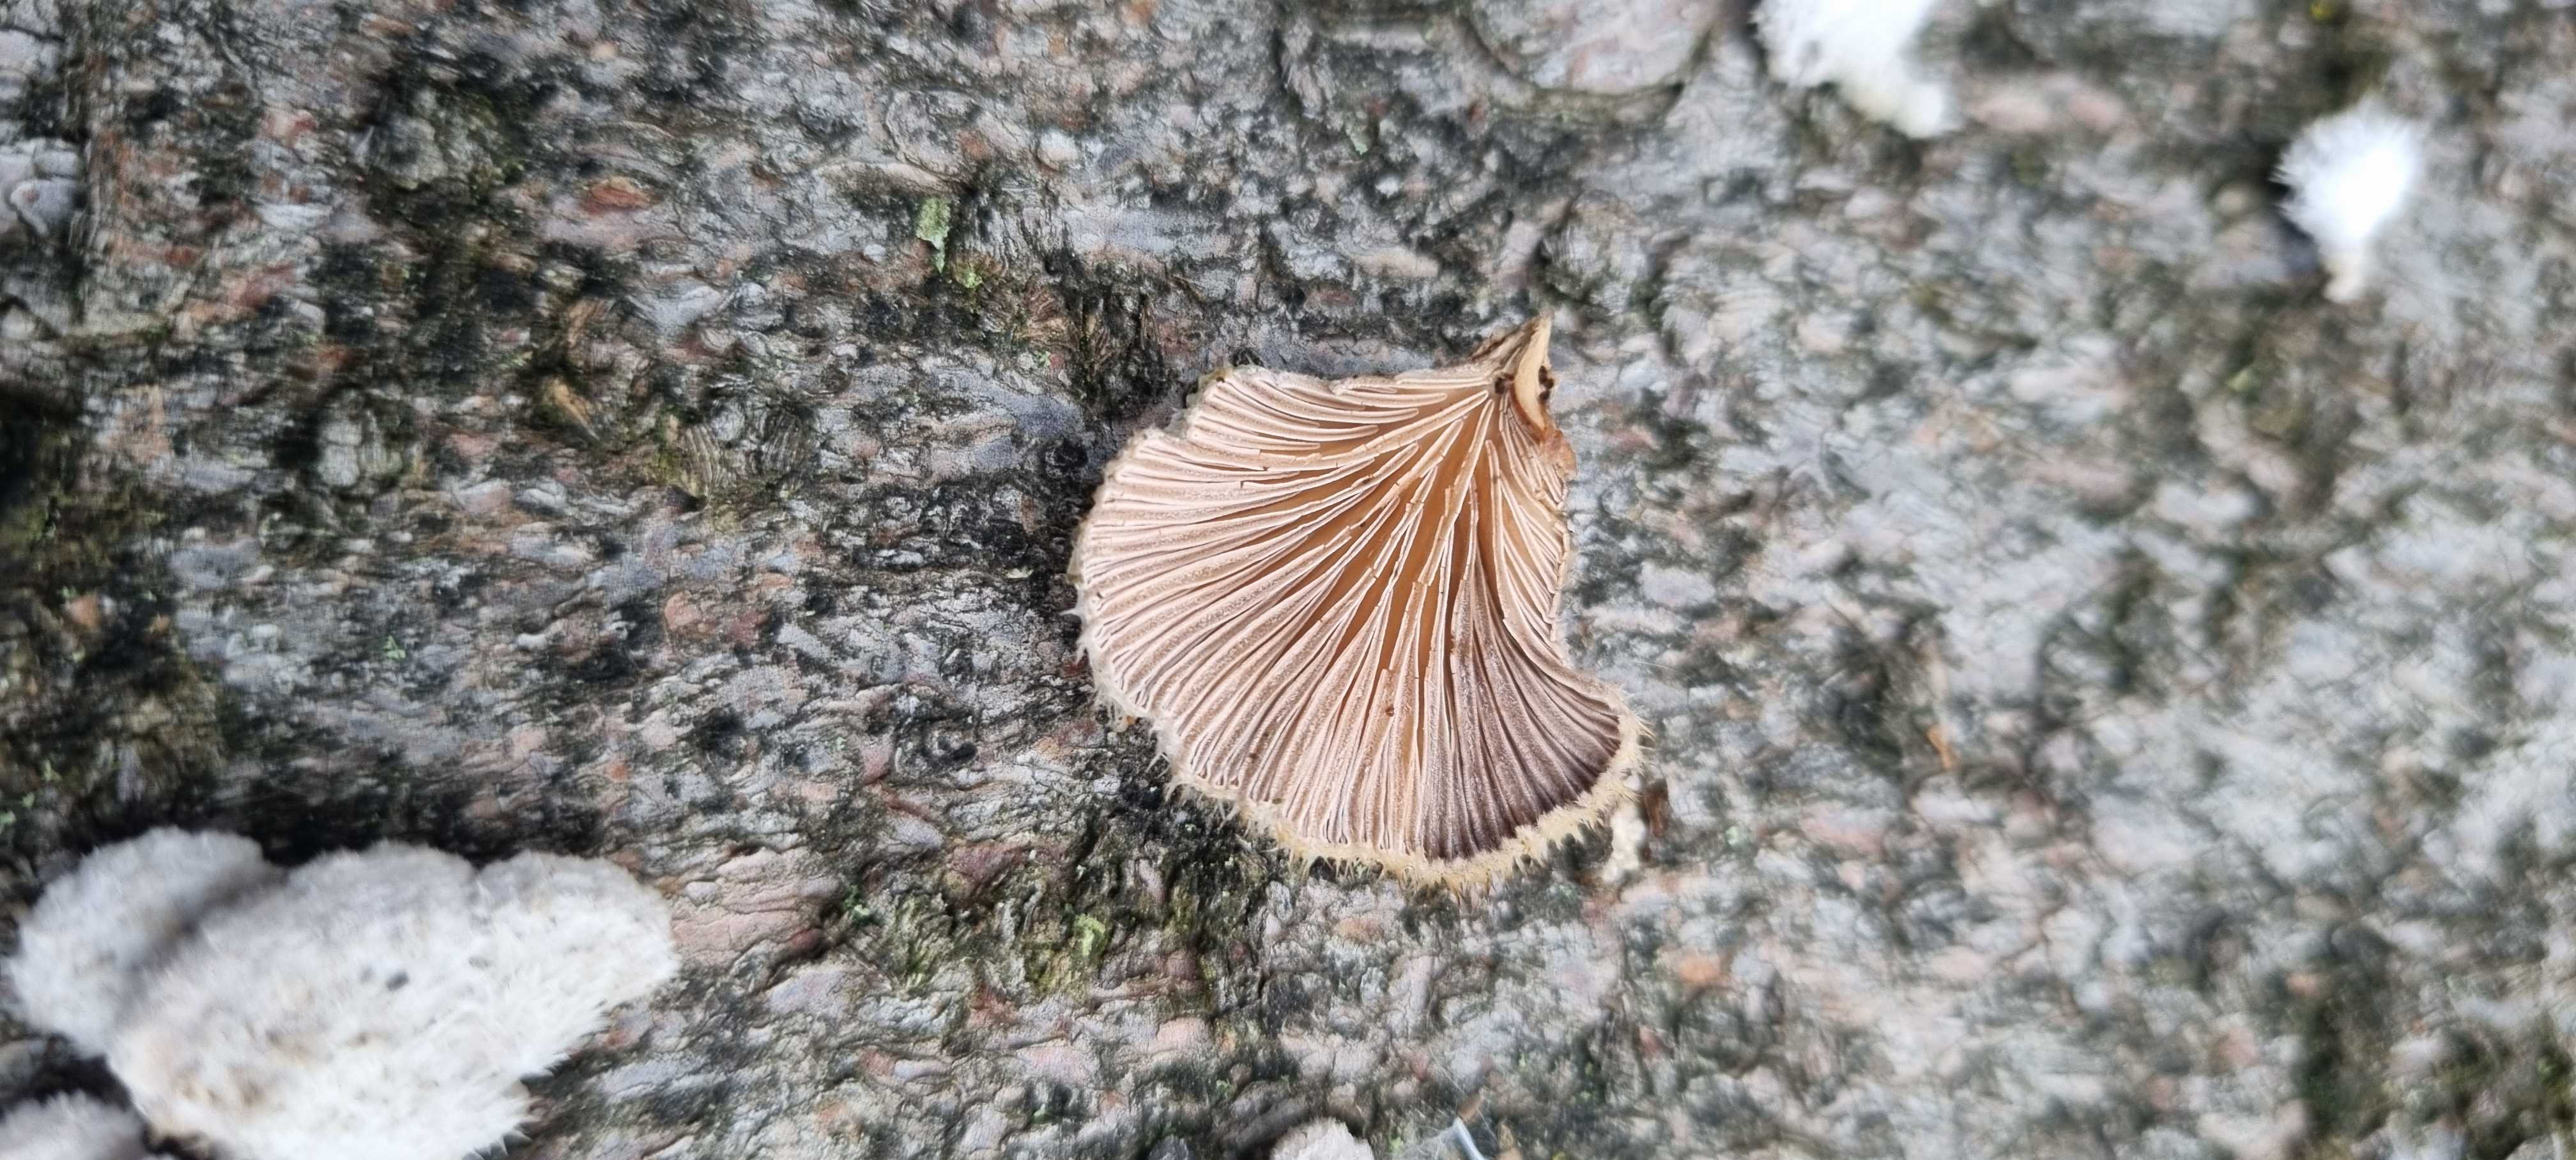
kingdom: Fungi
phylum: Basidiomycota
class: Agaricomycetes
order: Agaricales
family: Schizophyllaceae
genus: Schizophyllum
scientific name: Schizophyllum commune
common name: kløvblad
